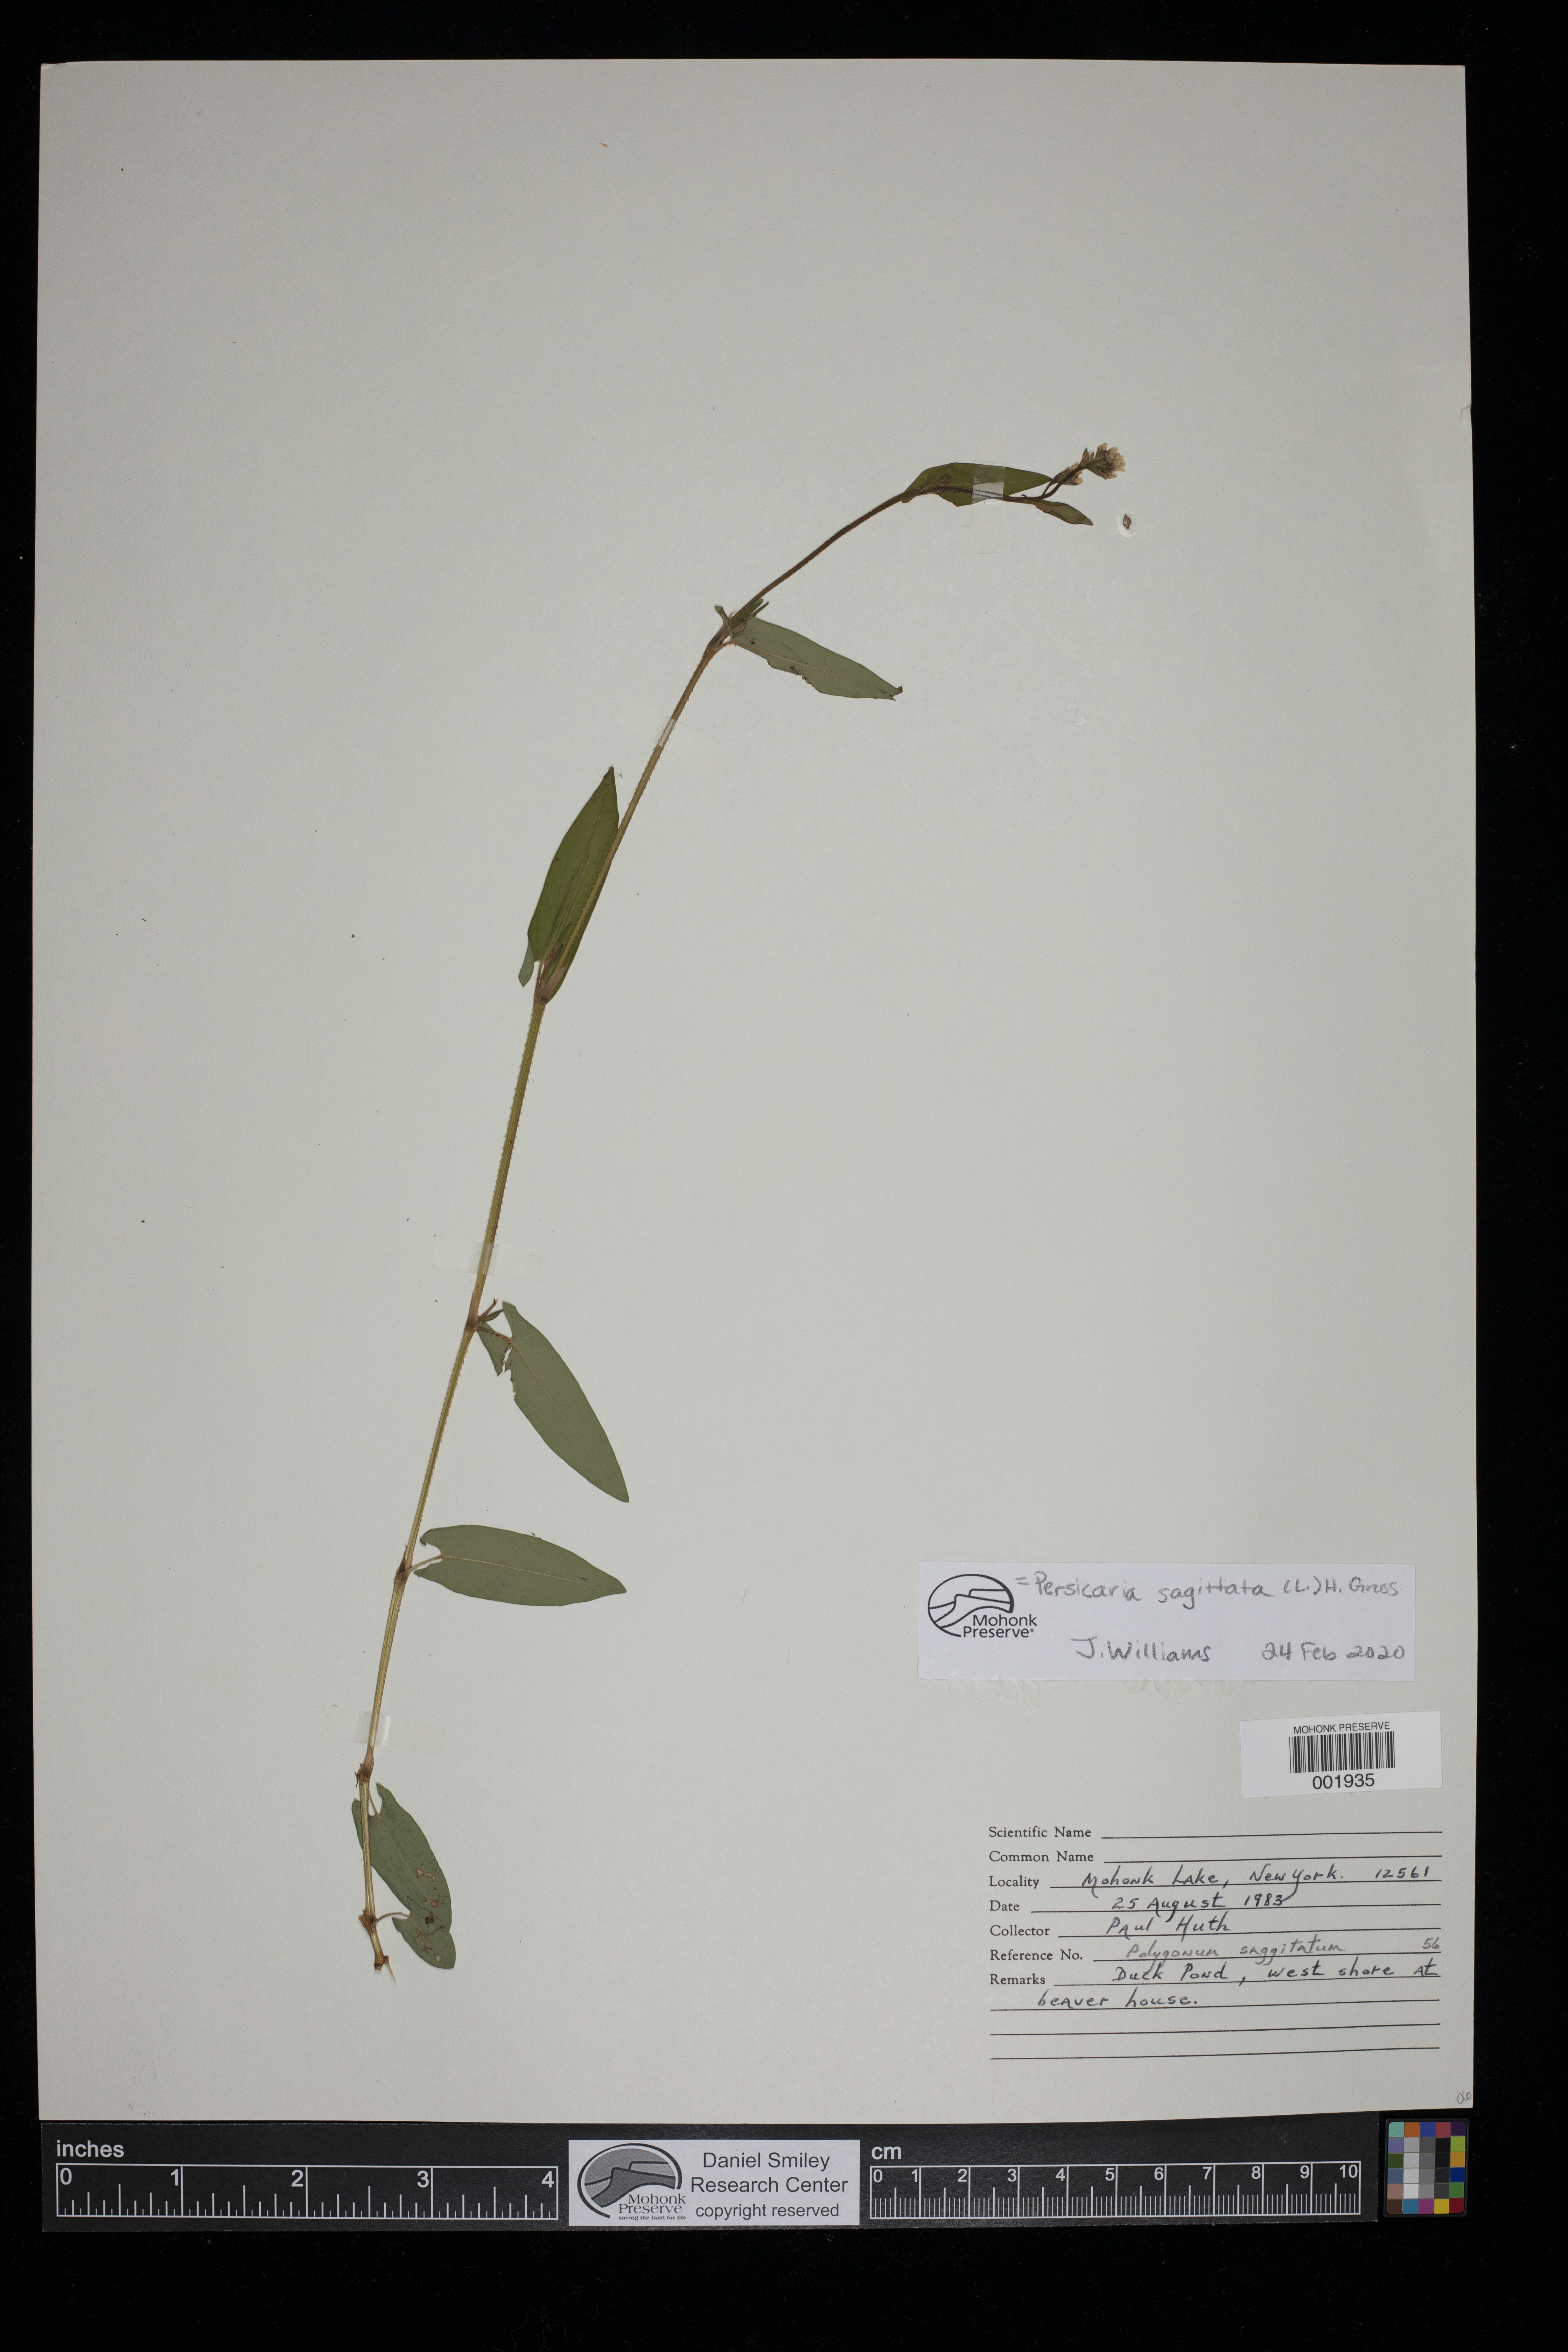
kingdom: Plantae
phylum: Tracheophyta
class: Magnoliopsida
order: Caryophyllales
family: Polygonaceae
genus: Persicaria
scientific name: Persicaria sagittata
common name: American tearthumb
